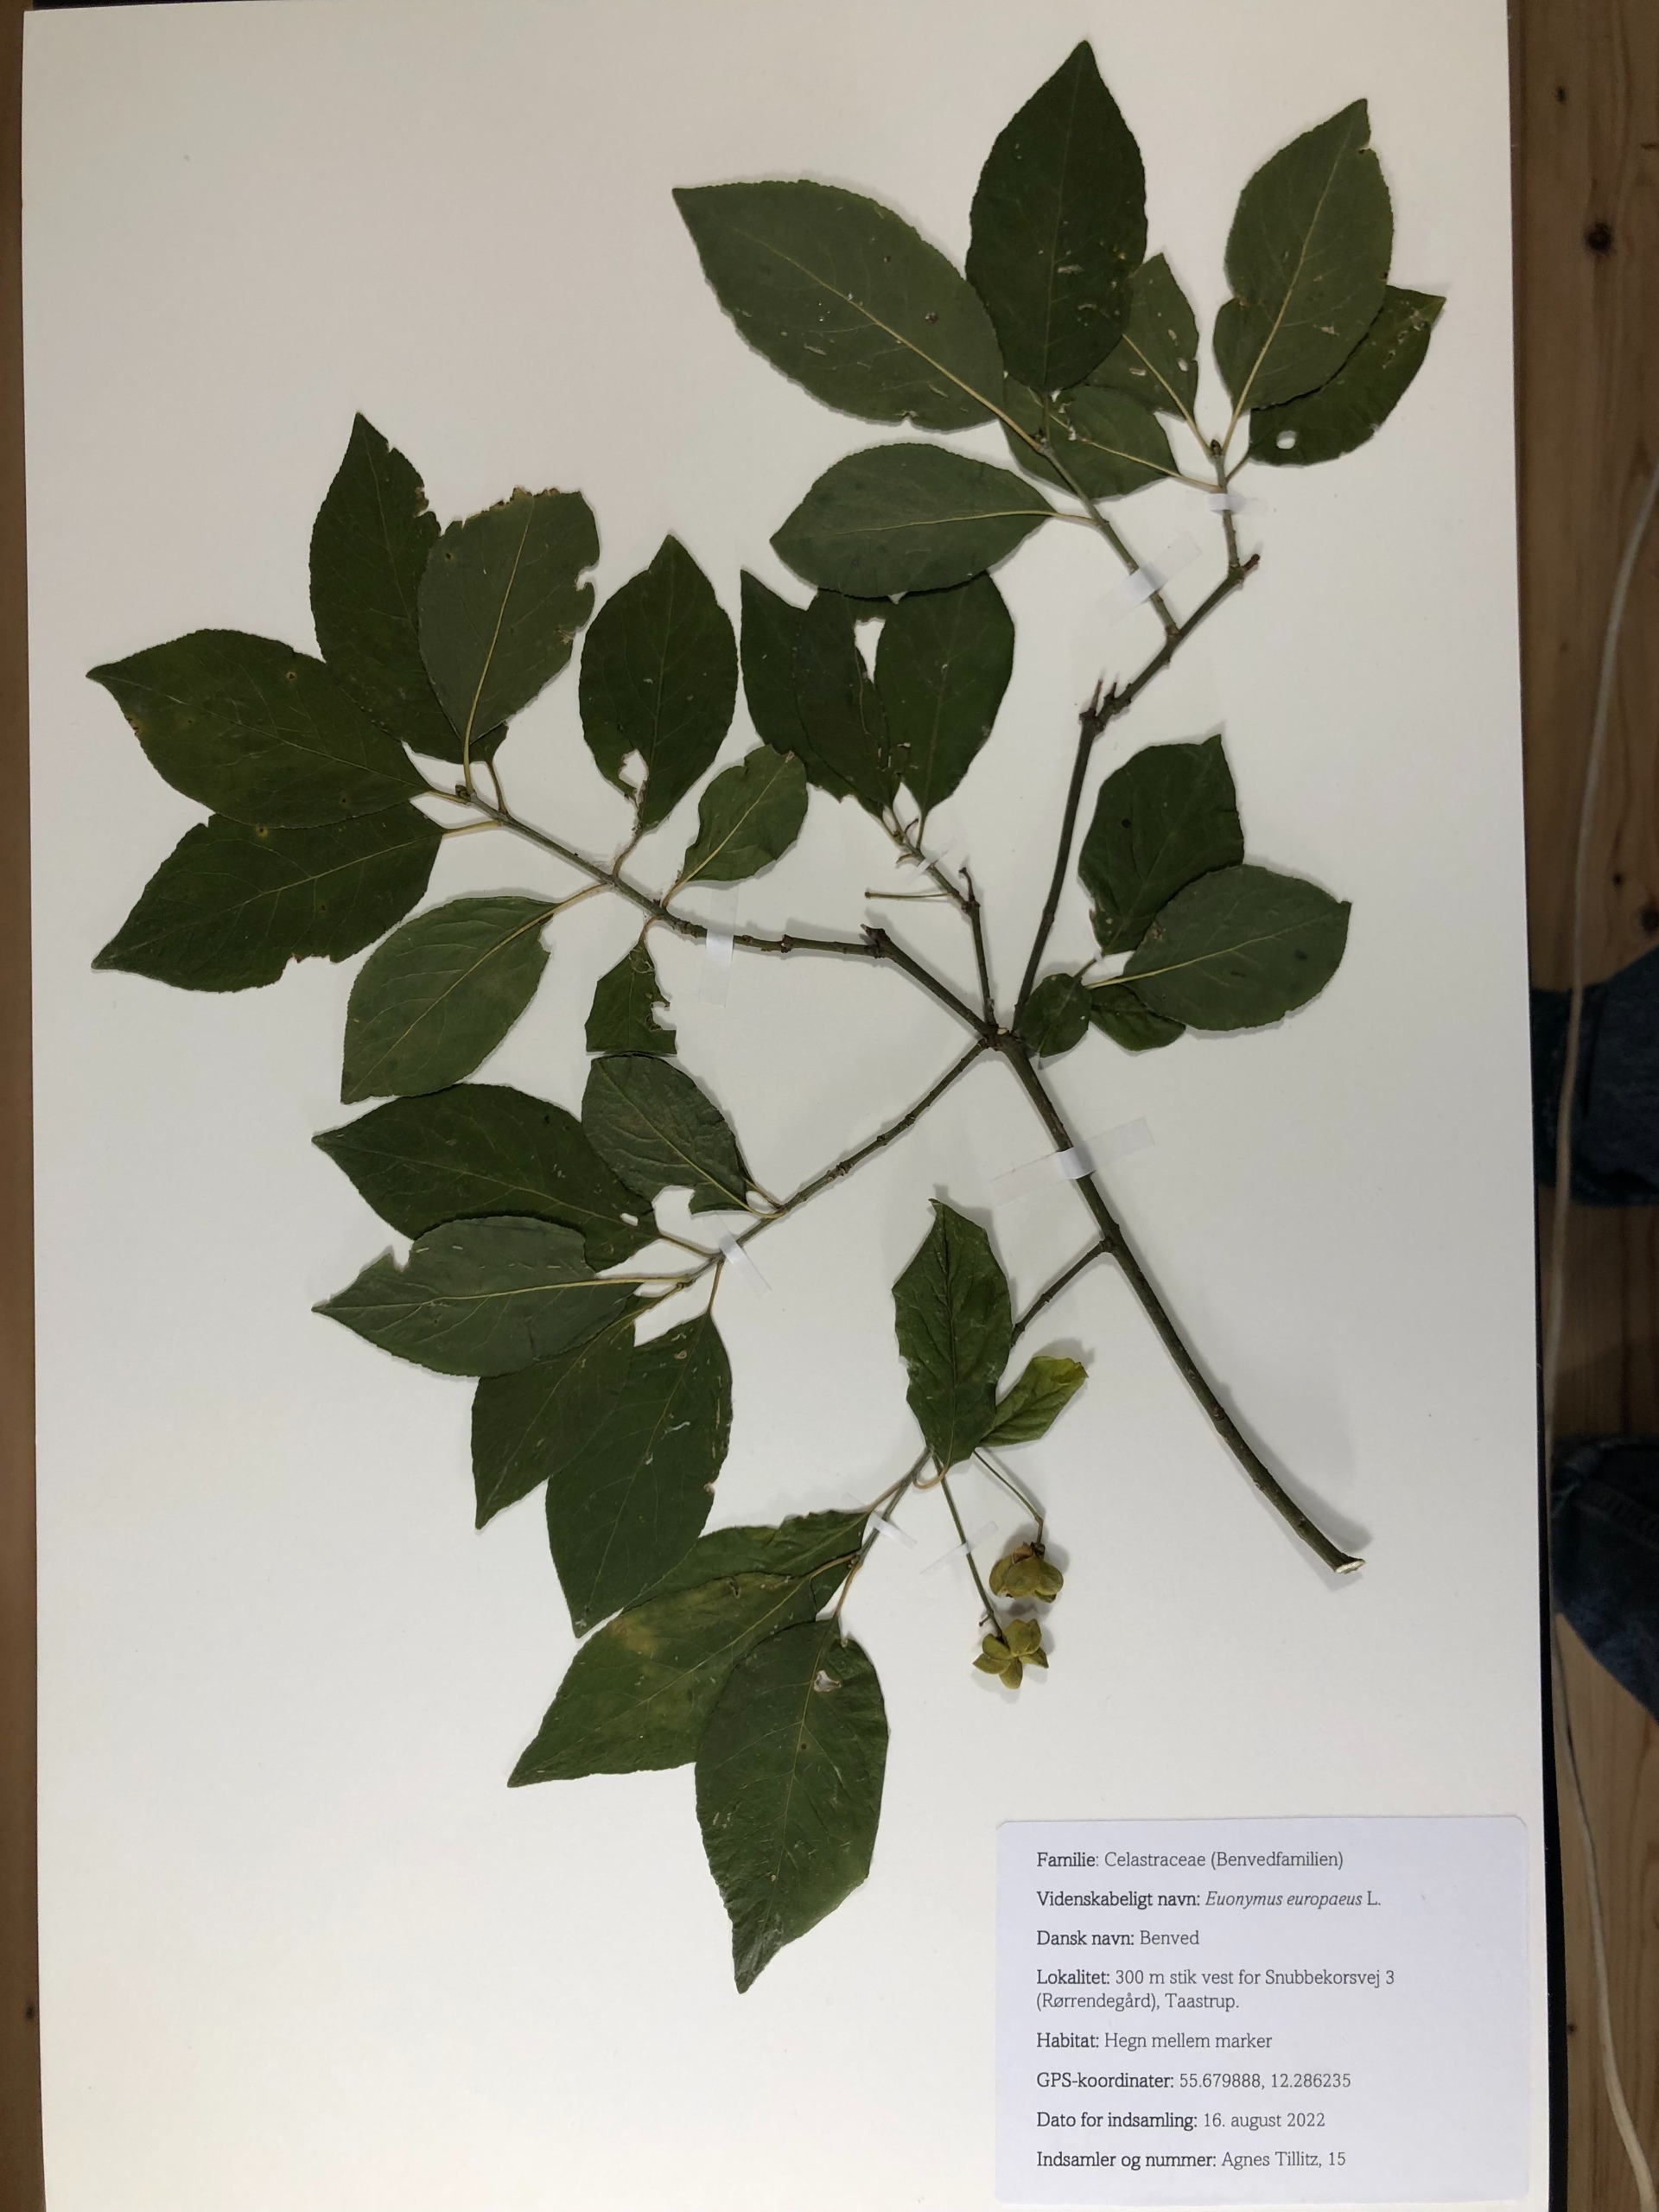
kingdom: Plantae
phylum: Tracheophyta
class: Magnoliopsida
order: Celastrales
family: Celastraceae
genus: Euonymus
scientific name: Euonymus europaeus
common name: Benved
